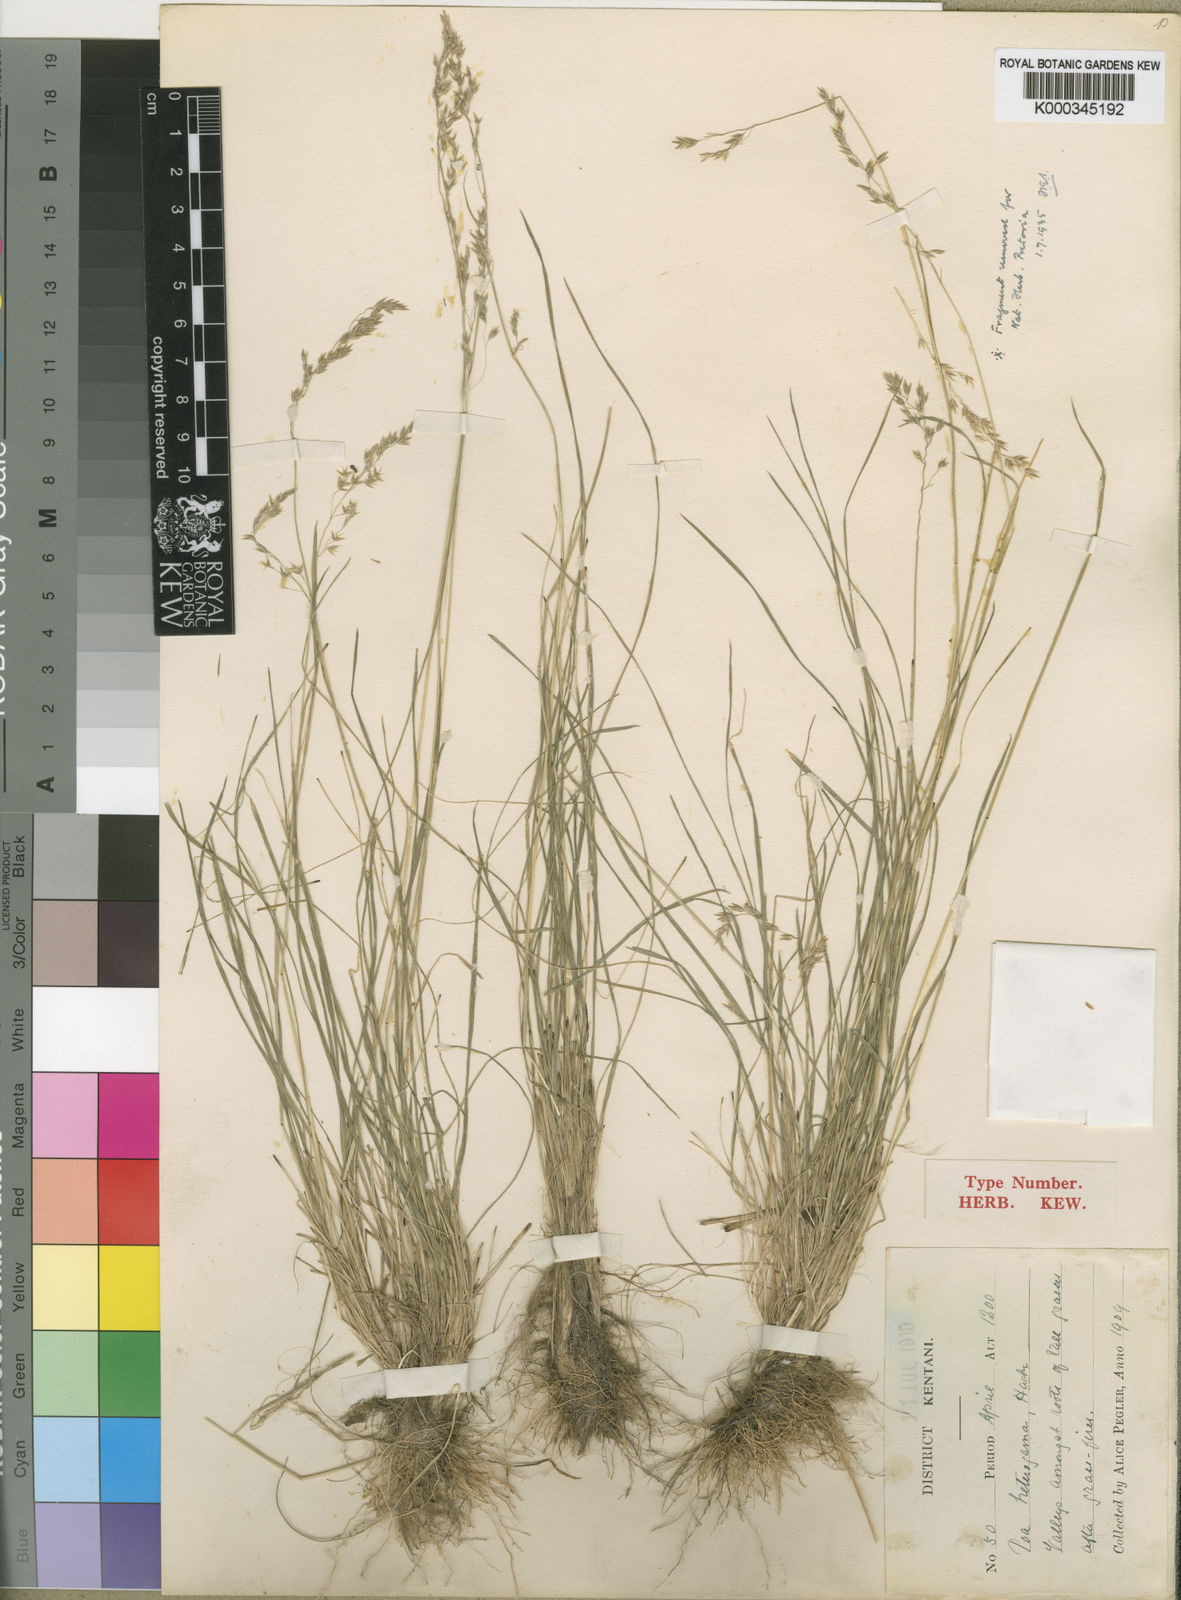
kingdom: Plantae
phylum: Tracheophyta
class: Liliopsida
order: Poales
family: Poaceae
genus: Poa
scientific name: Poa binata
